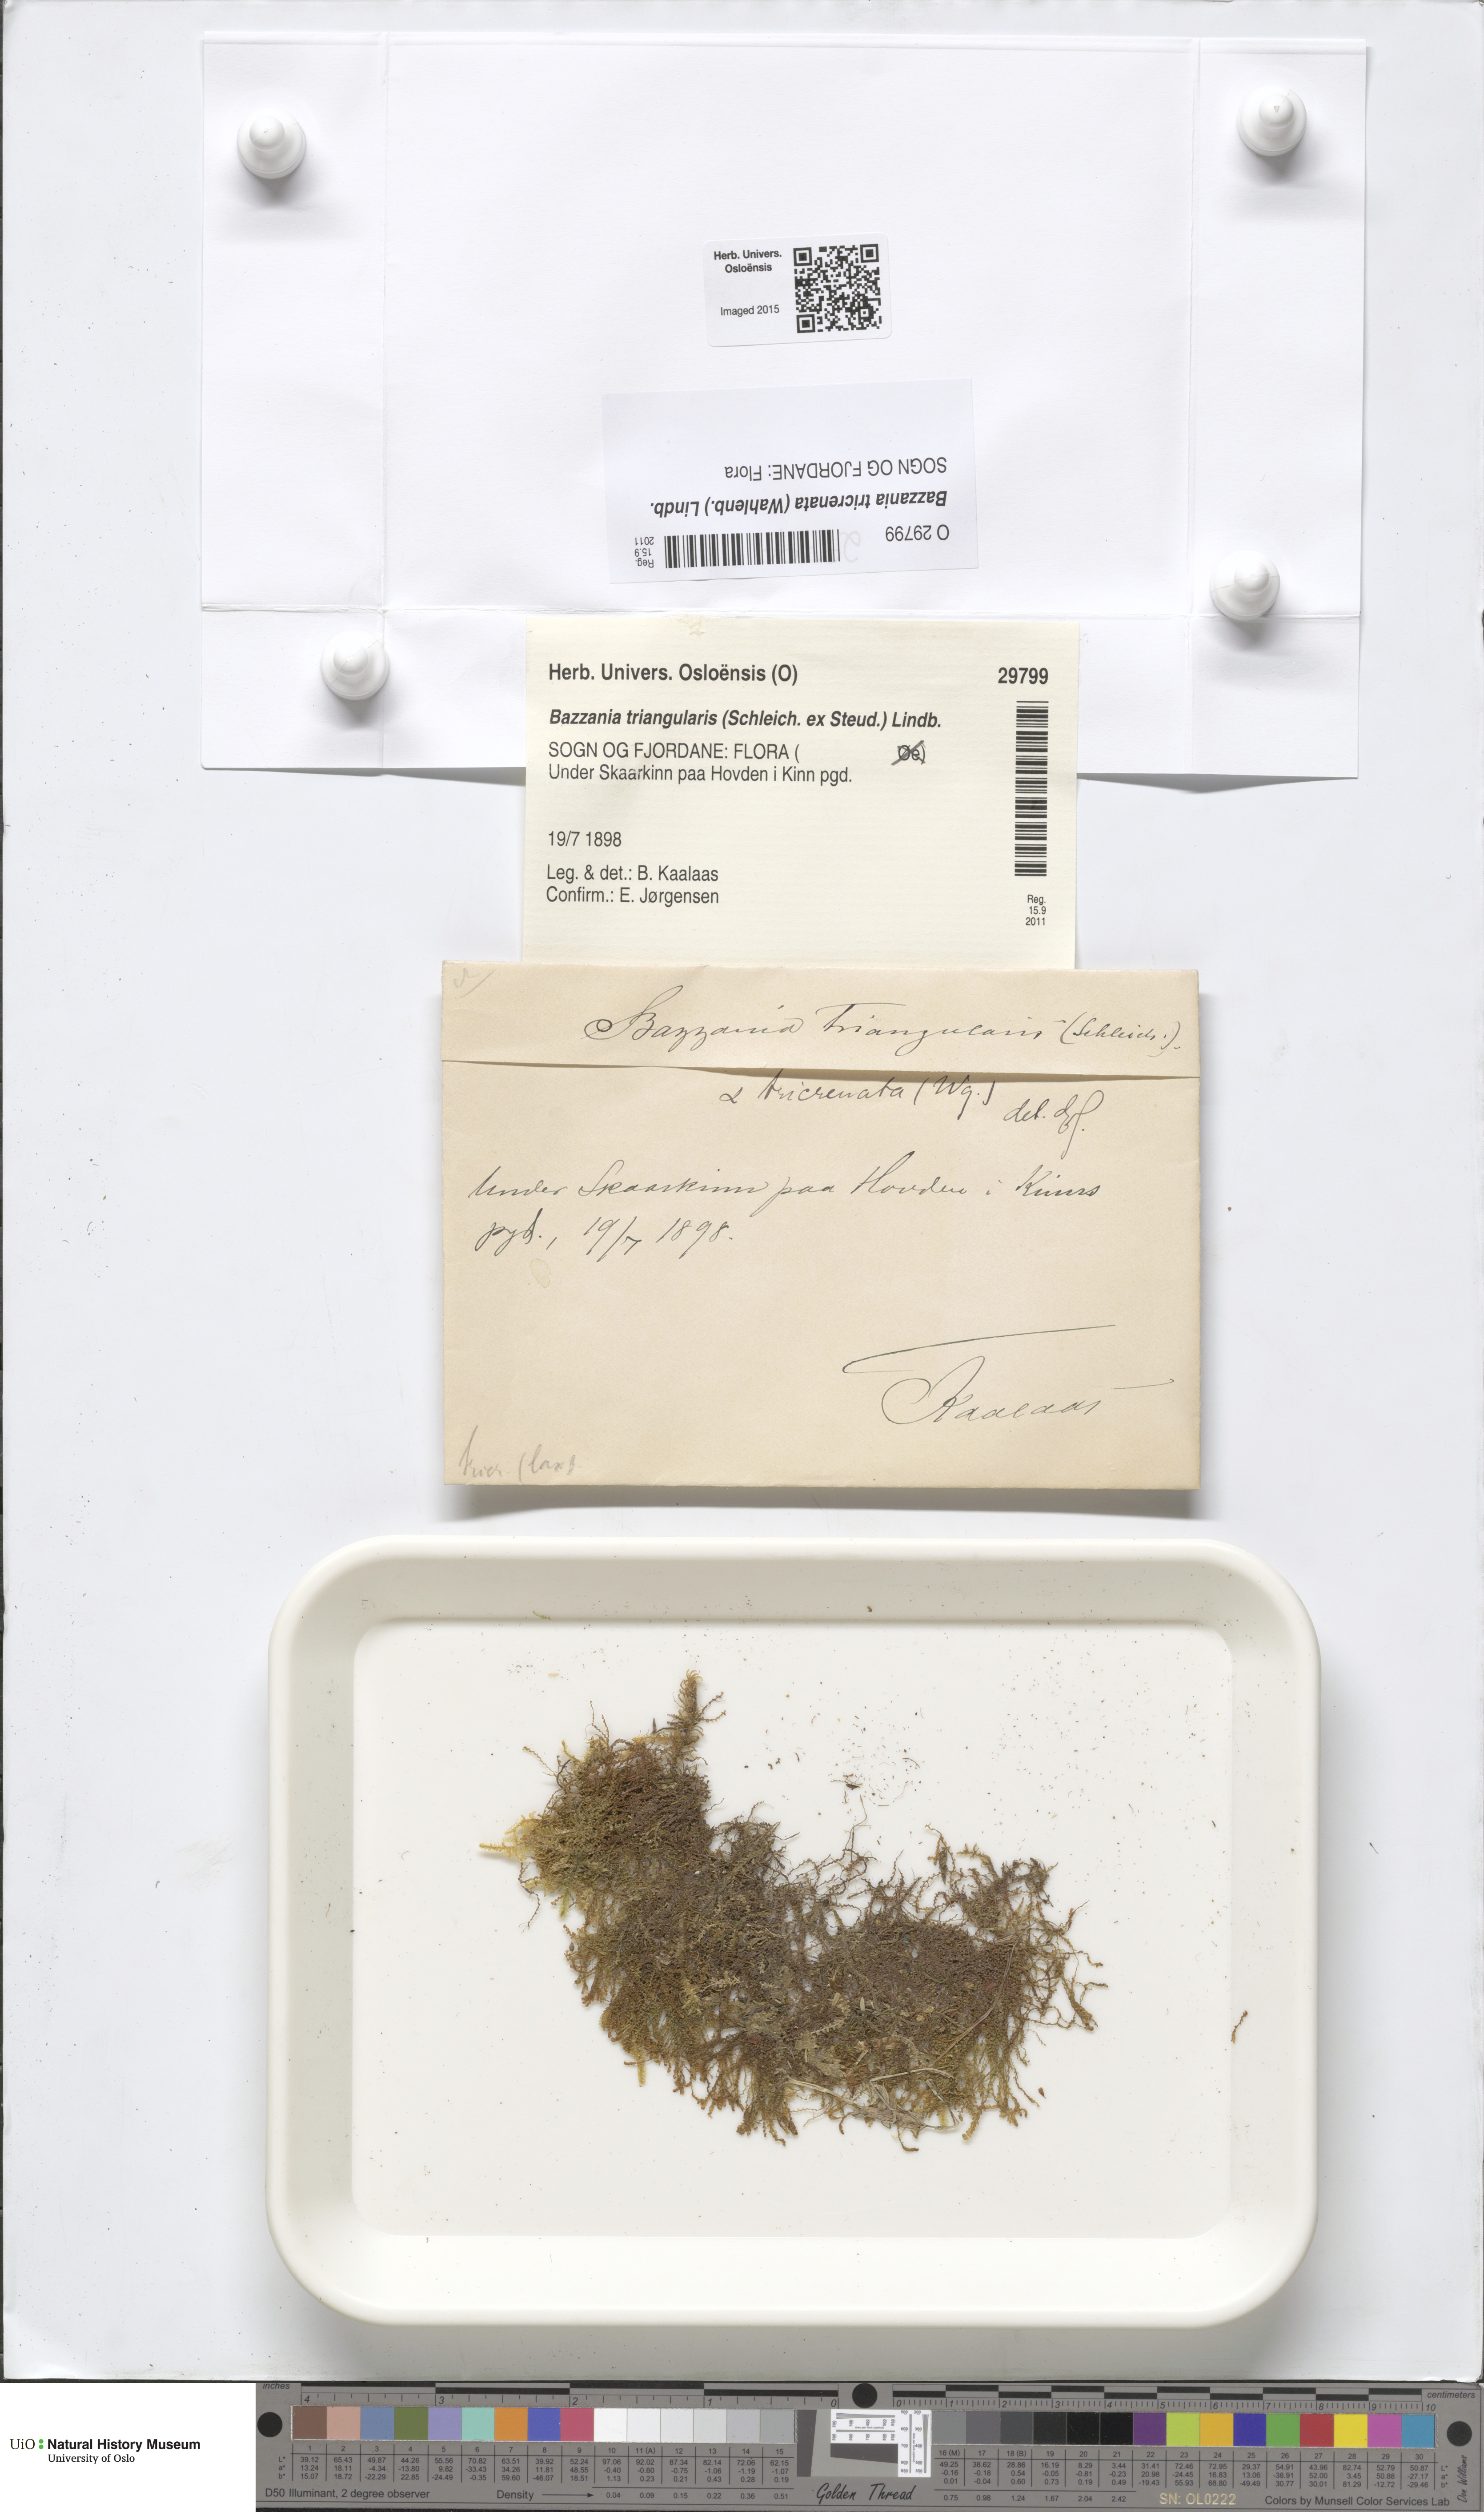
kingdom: Plantae
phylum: Marchantiophyta
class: Jungermanniopsida
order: Jungermanniales
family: Lepidoziaceae
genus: Bazzania
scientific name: Bazzania tricrenata
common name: Lesser whipwort
